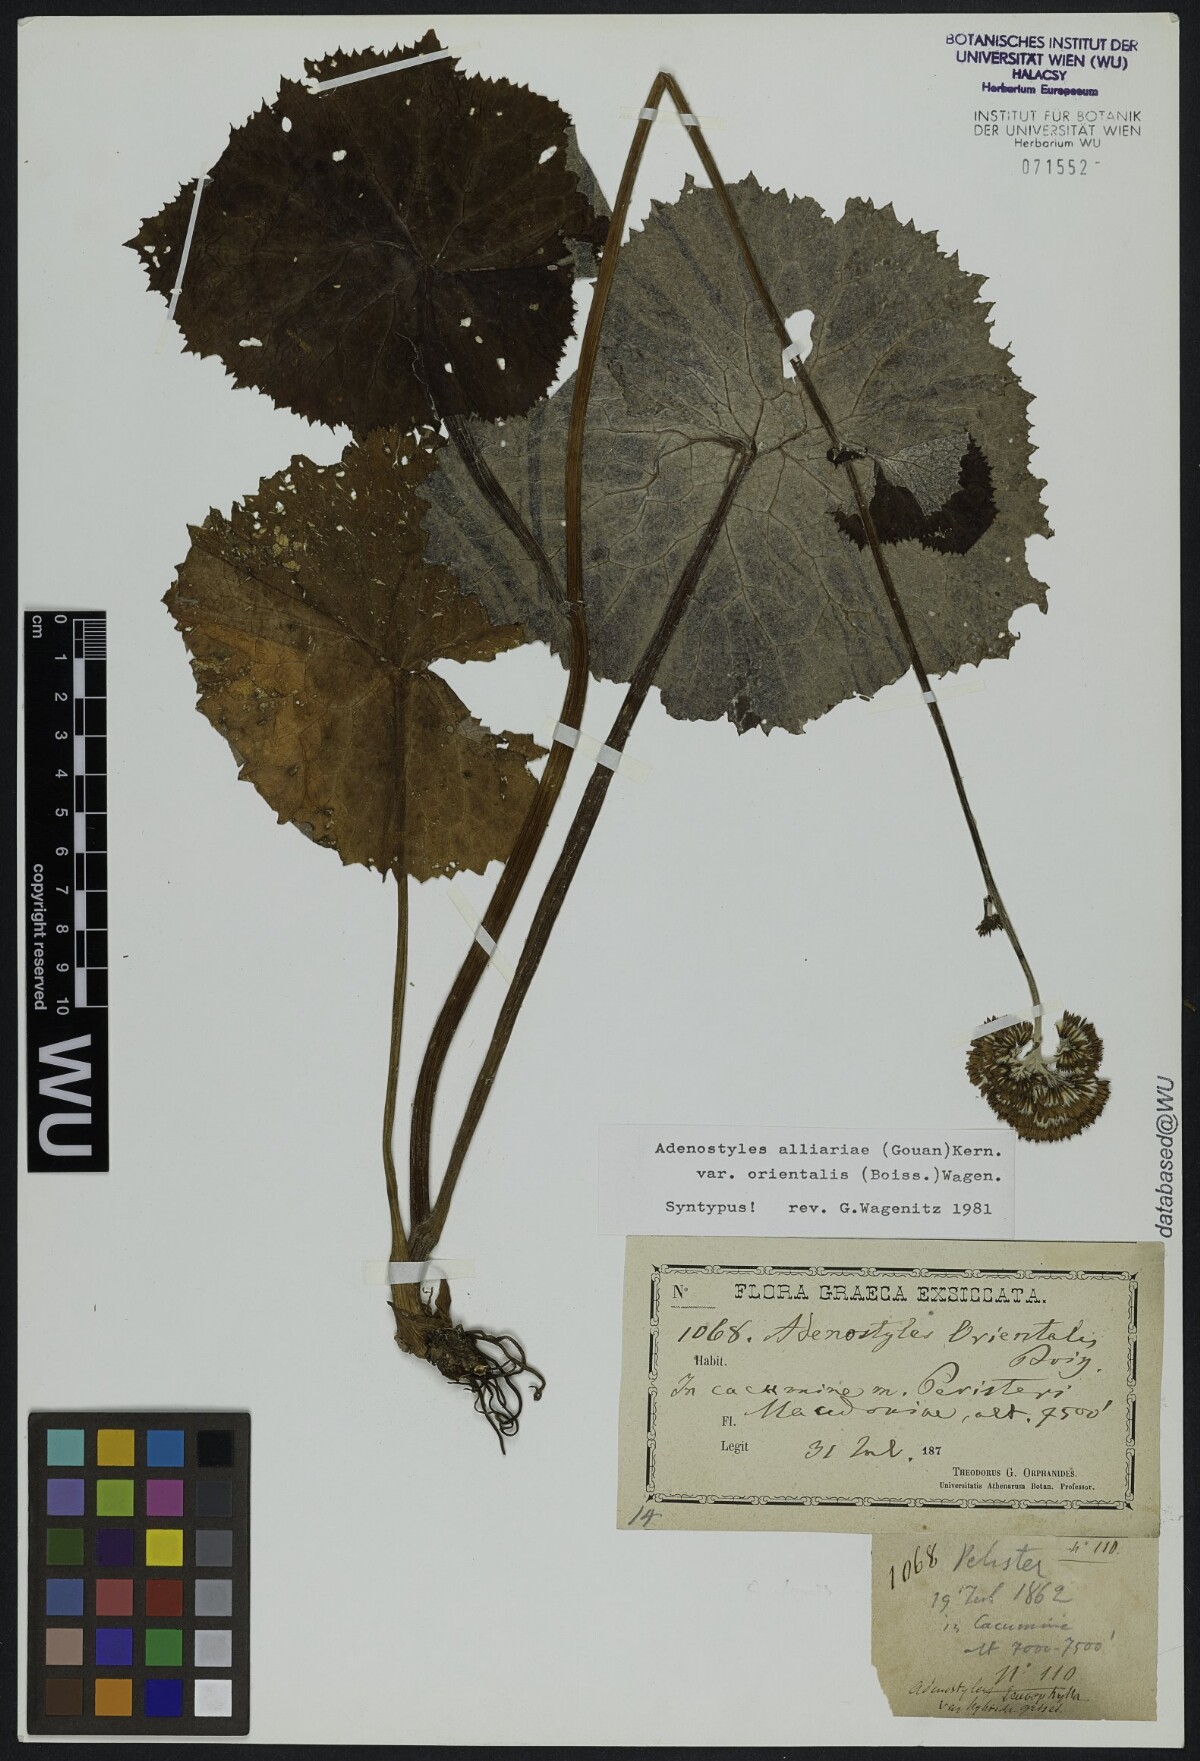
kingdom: Plantae
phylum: Tracheophyta
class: Magnoliopsida
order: Asterales
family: Asteraceae
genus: Adenostyles
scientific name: Adenostyles alliariae
